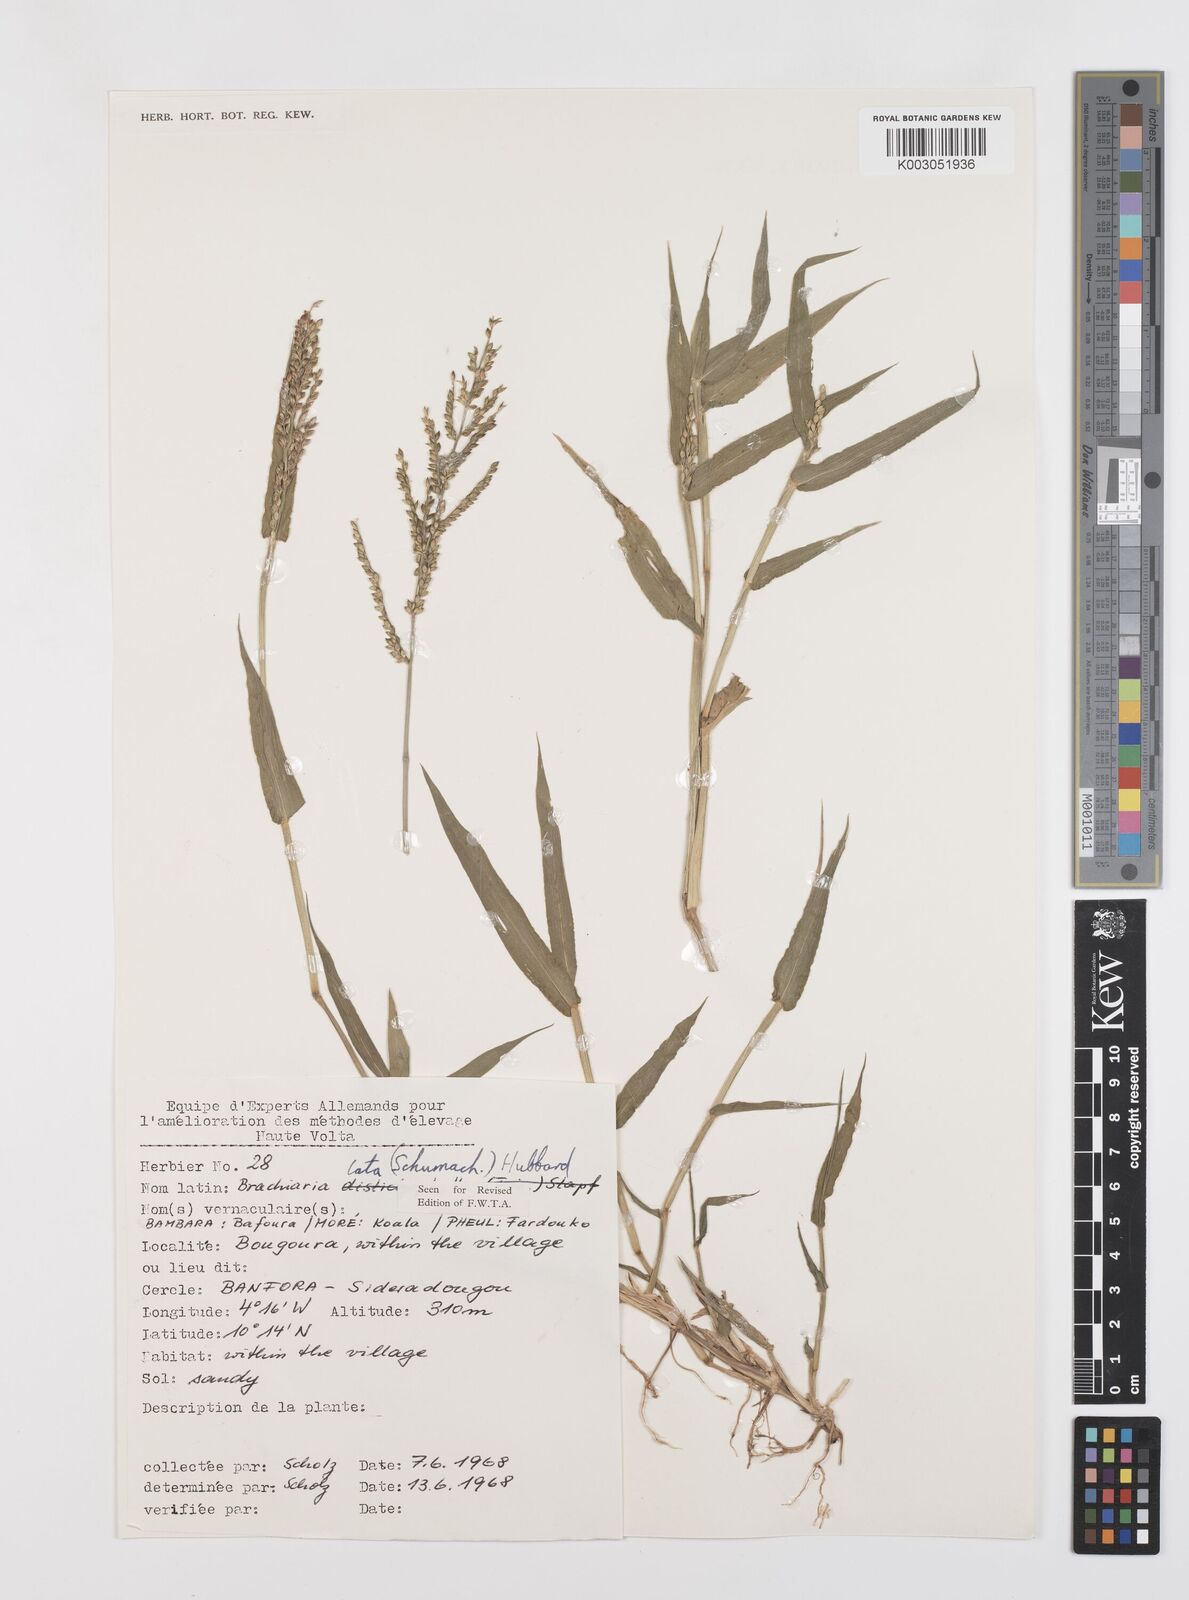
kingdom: Plantae
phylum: Tracheophyta
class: Liliopsida
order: Poales
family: Poaceae
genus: Urochloa
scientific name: Urochloa lata
